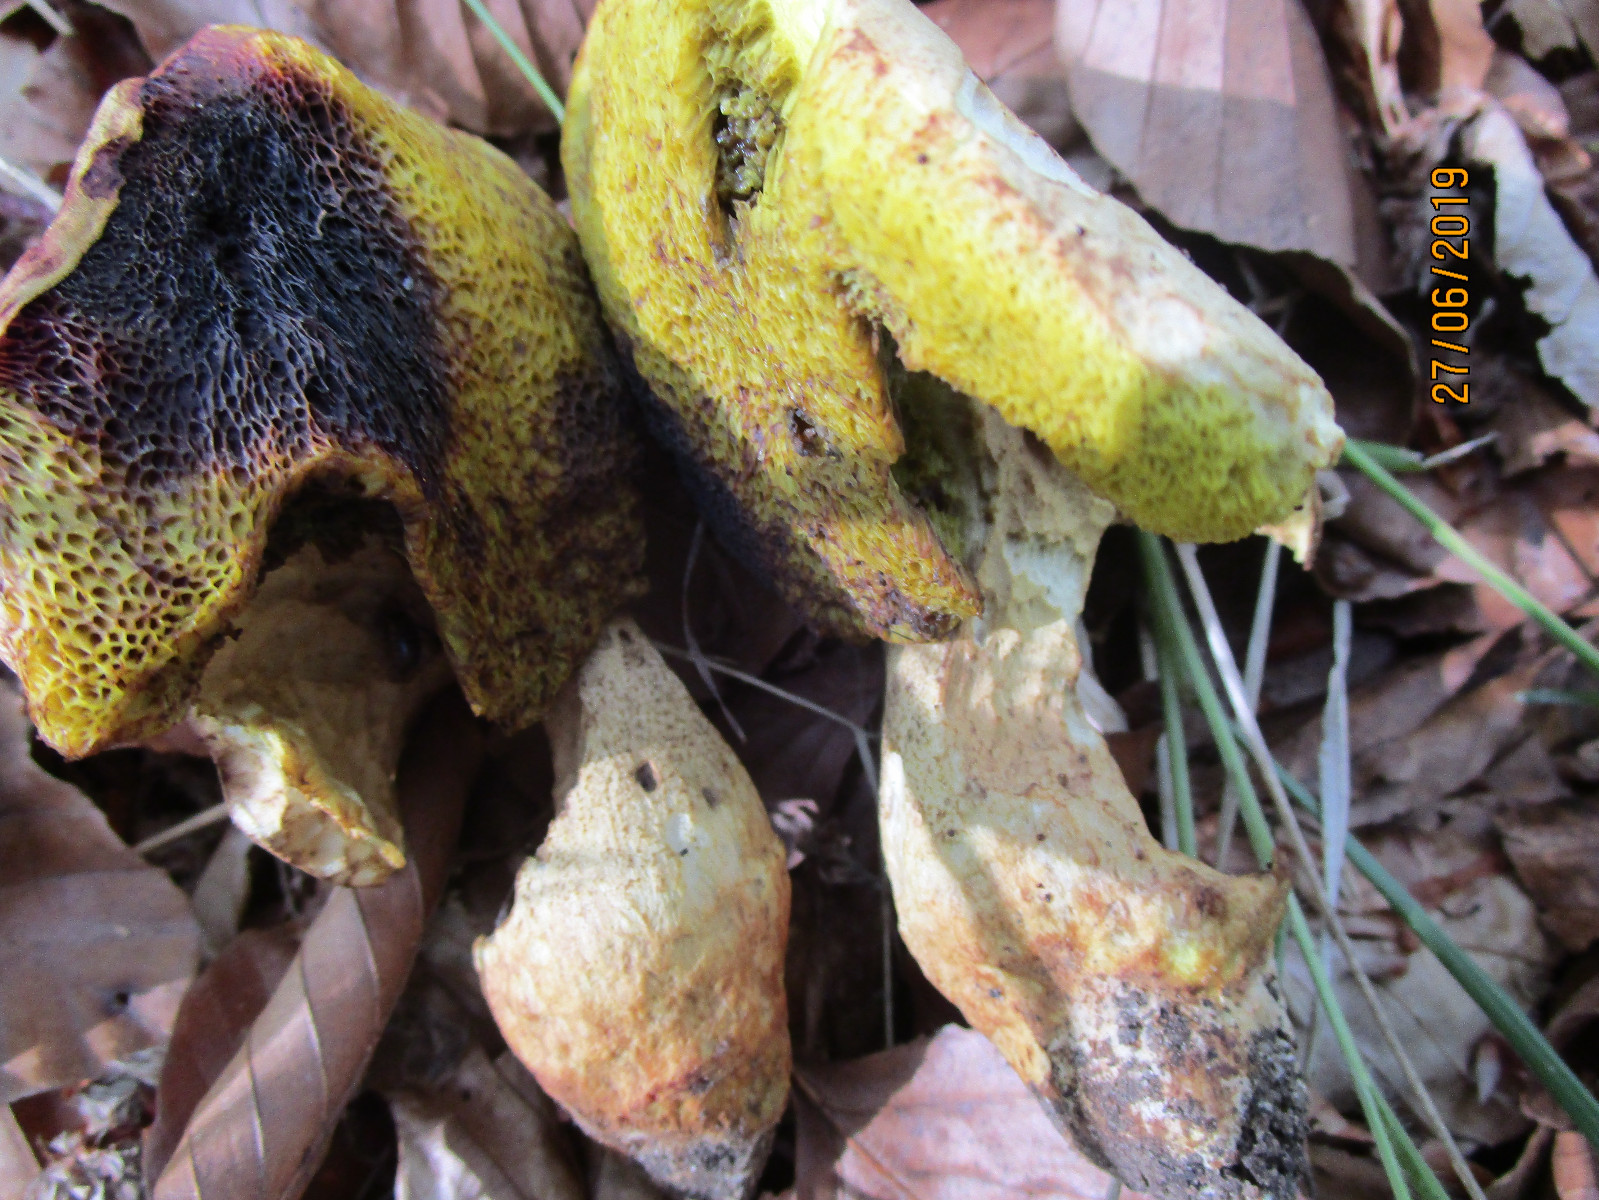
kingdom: Fungi
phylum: Basidiomycota
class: Agaricomycetes
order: Boletales
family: Boletaceae
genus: Hemileccinum
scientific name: Hemileccinum impolitum
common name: bleg rørhat
